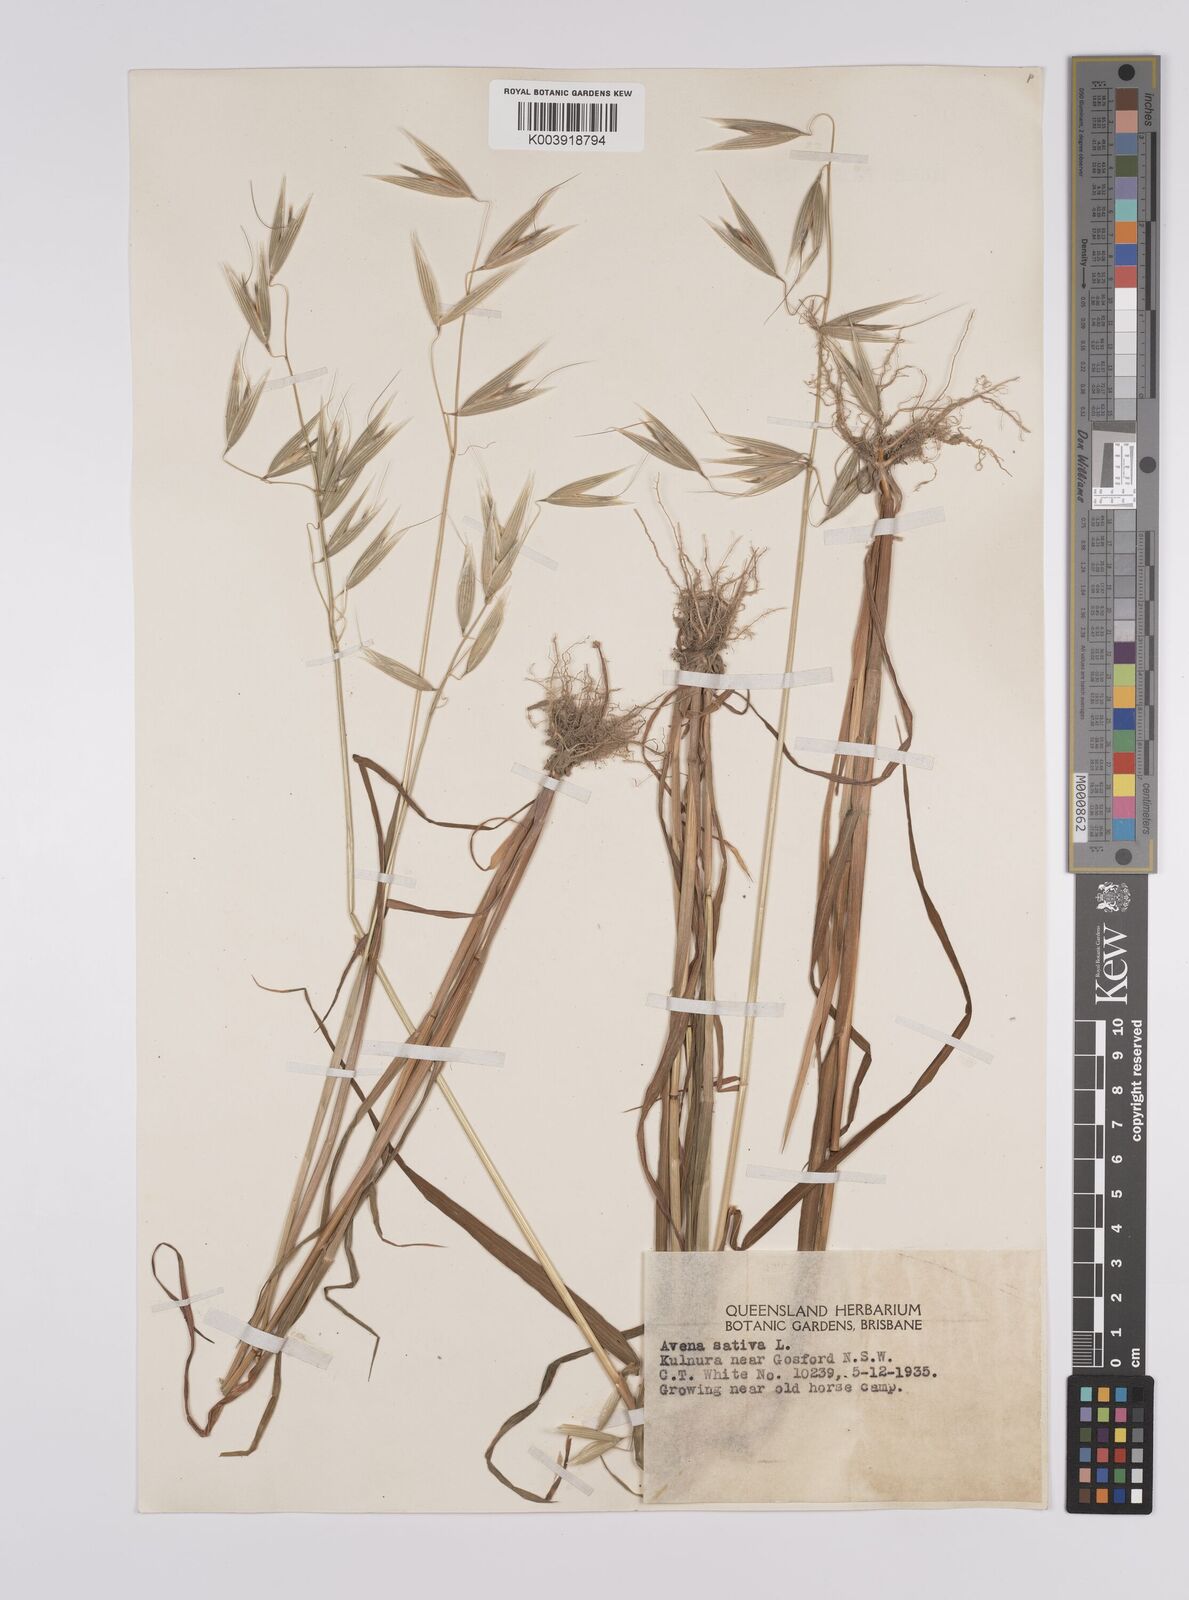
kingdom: Plantae
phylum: Tracheophyta
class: Liliopsida
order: Poales
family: Poaceae
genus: Avena
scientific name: Avena byzantina
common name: Algerian oat
